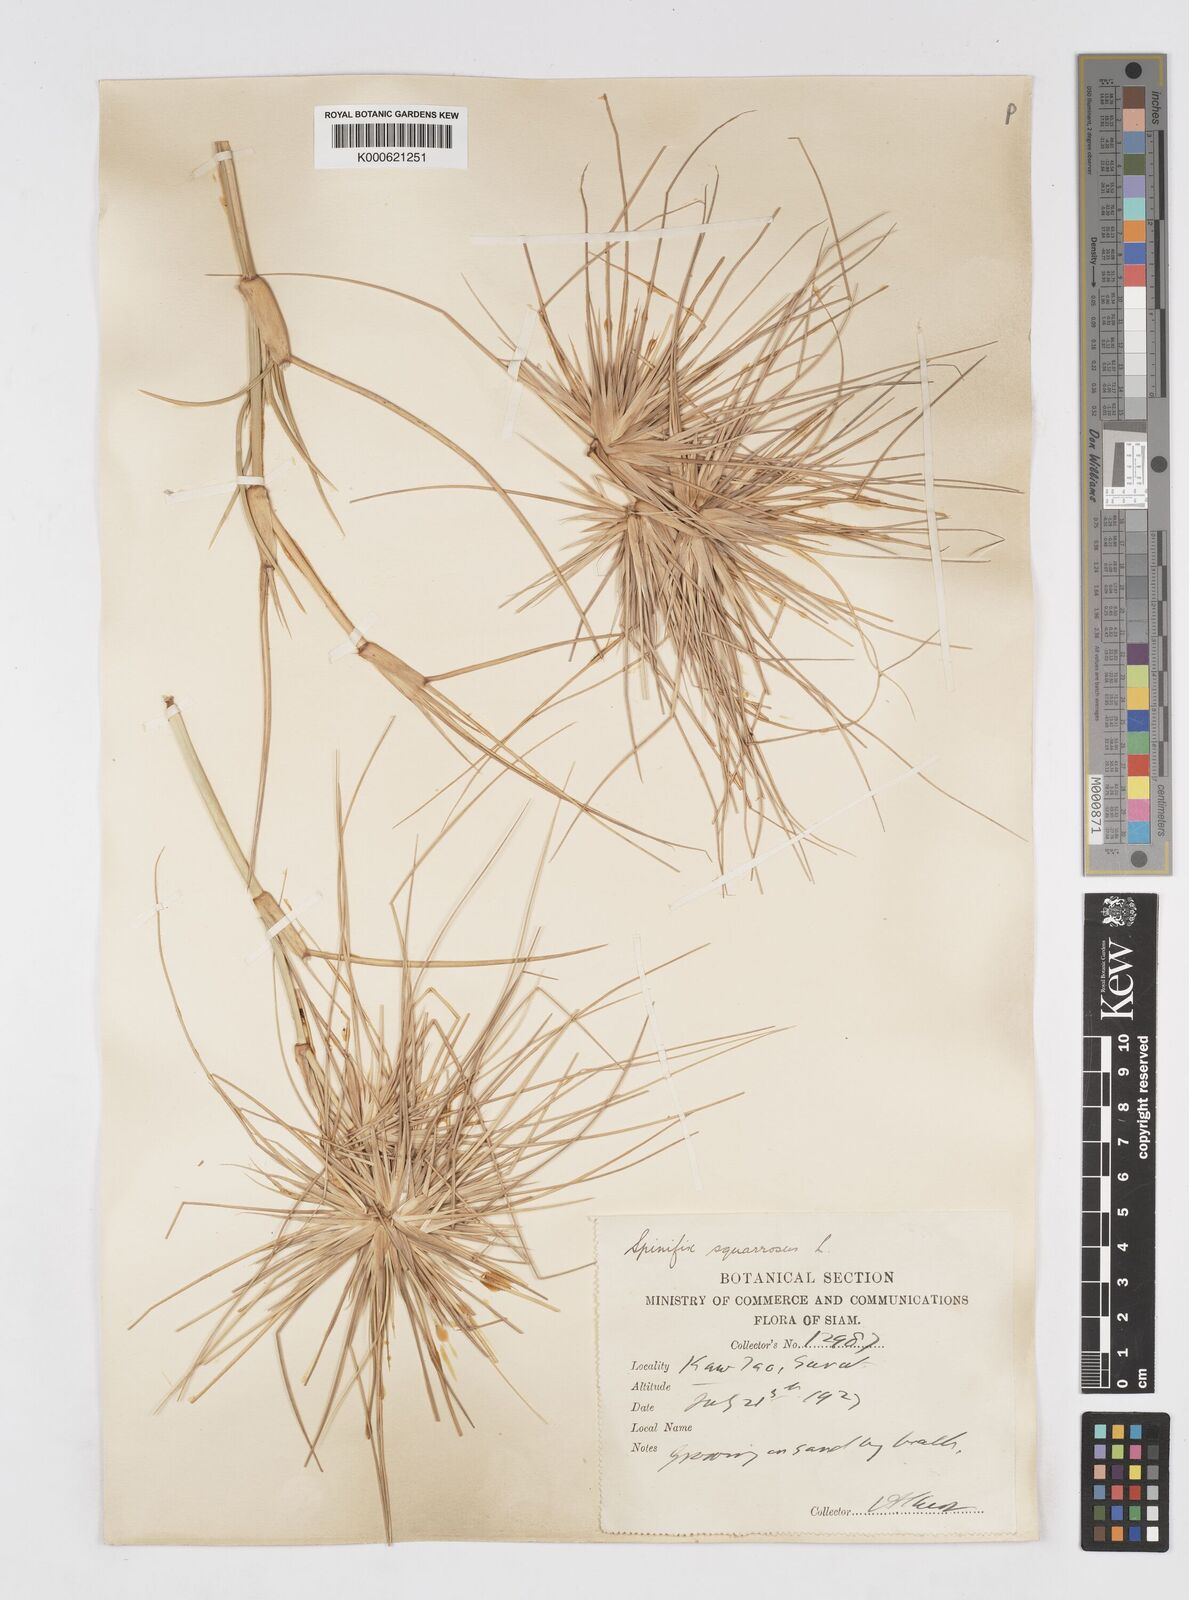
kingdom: Plantae
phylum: Tracheophyta
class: Liliopsida
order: Poales
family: Poaceae
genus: Spinifex
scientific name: Spinifex littoreus
